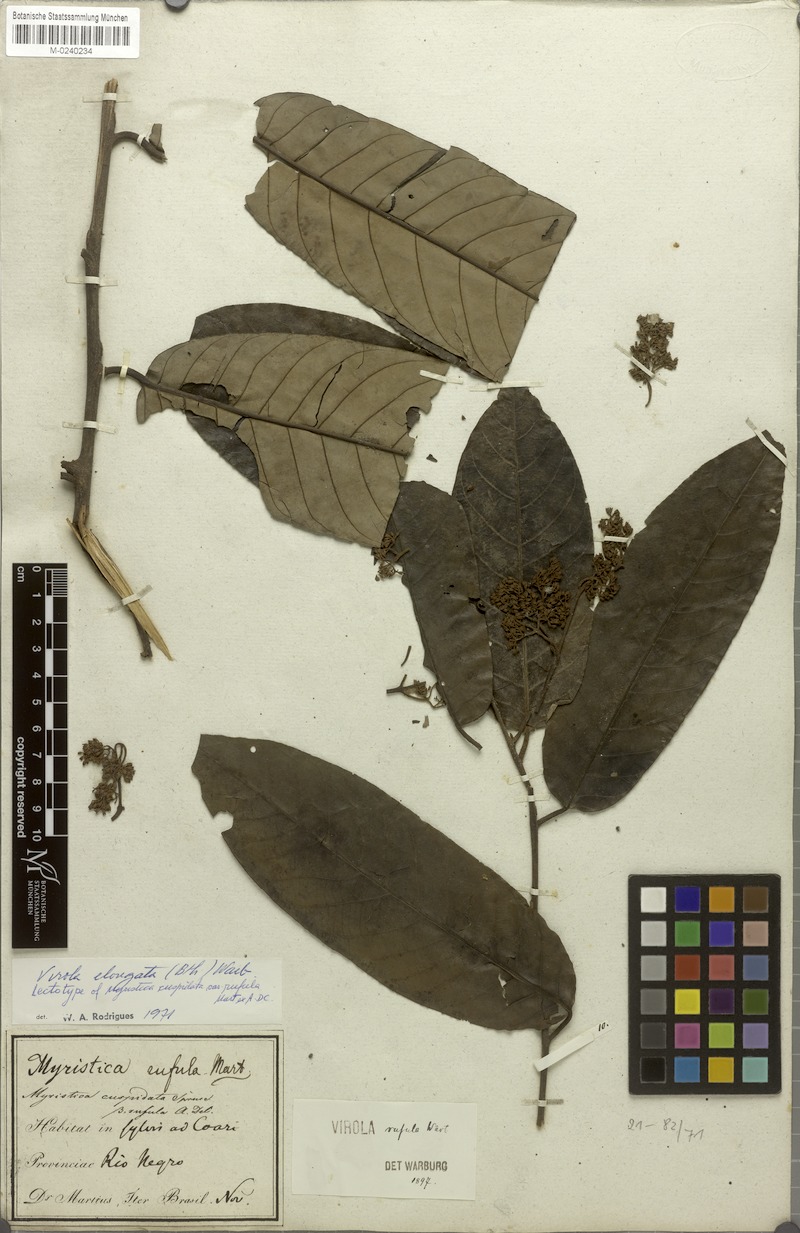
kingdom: Plantae
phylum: Tracheophyta
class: Magnoliopsida
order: Magnoliales
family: Myristicaceae
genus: Virola
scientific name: Virola elongata
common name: Sacred virola
